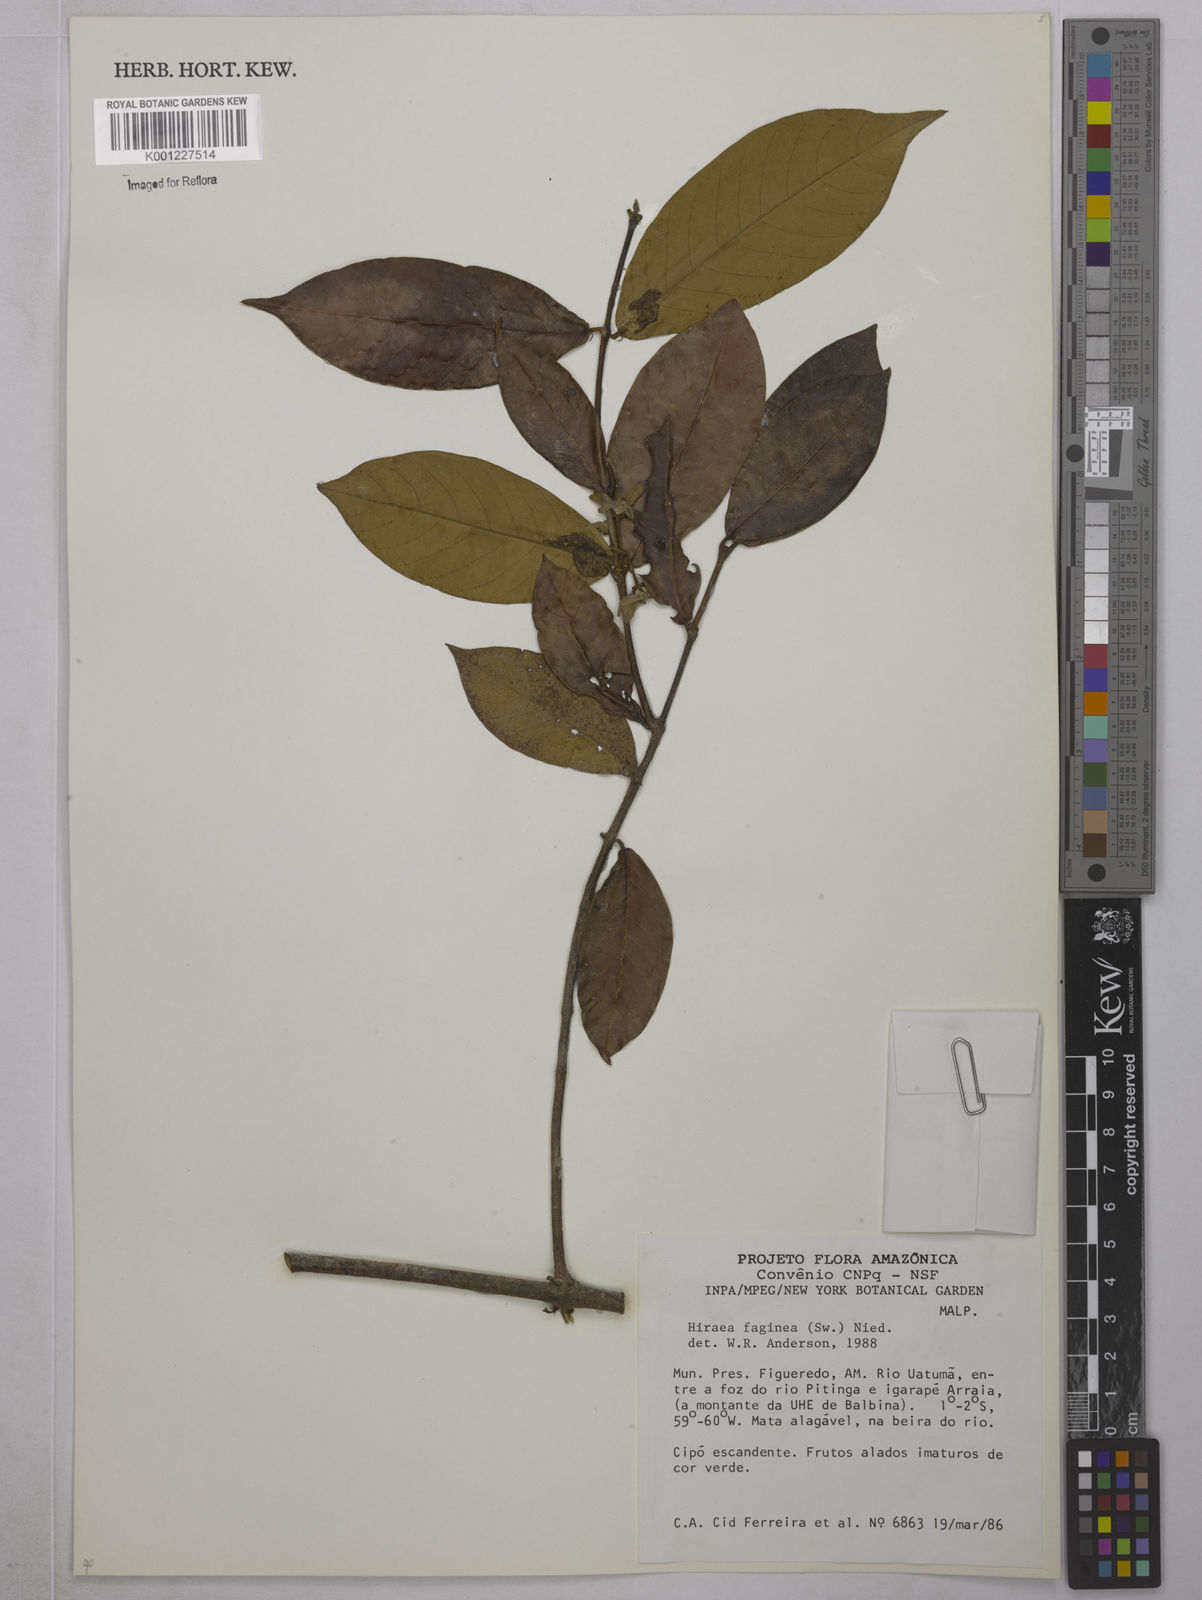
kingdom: Plantae
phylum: Tracheophyta
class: Magnoliopsida
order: Malpighiales
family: Malpighiaceae
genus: Hiraea
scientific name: Hiraea faginea
